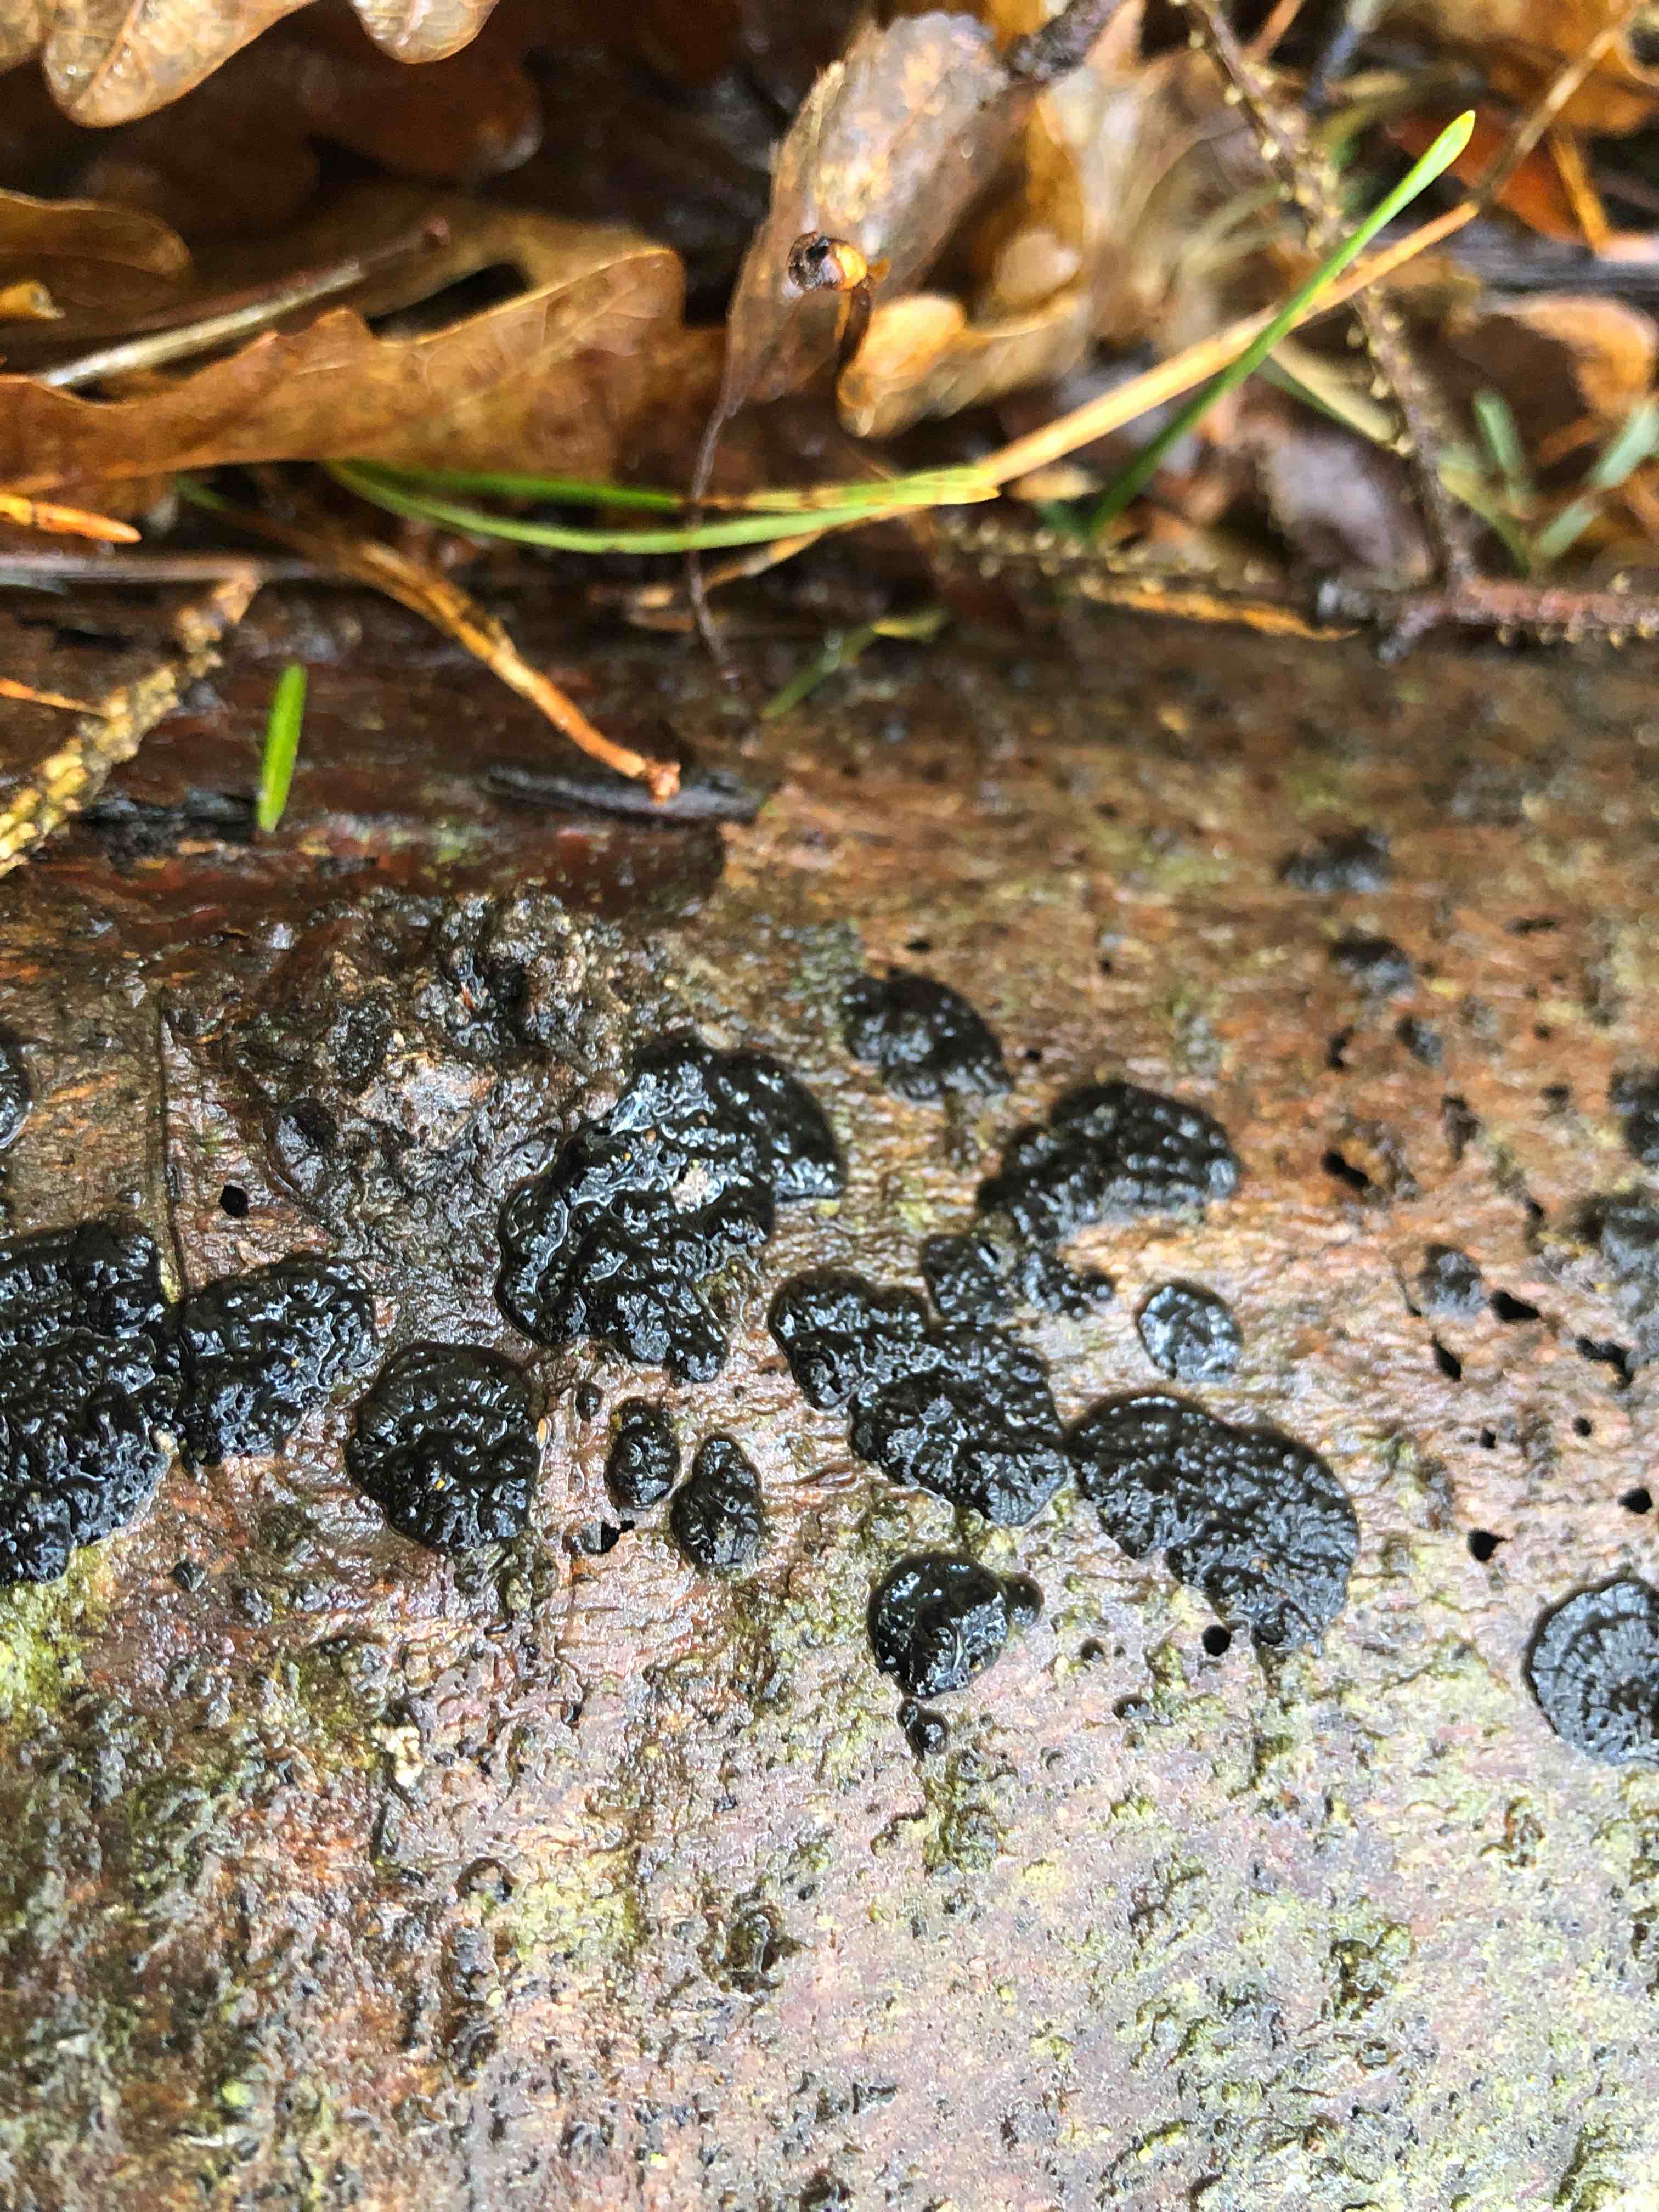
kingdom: Fungi
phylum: Basidiomycota
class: Agaricomycetes
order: Auriculariales
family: Auriculariaceae
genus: Exidia
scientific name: Exidia pithya
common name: gran-bævretop
